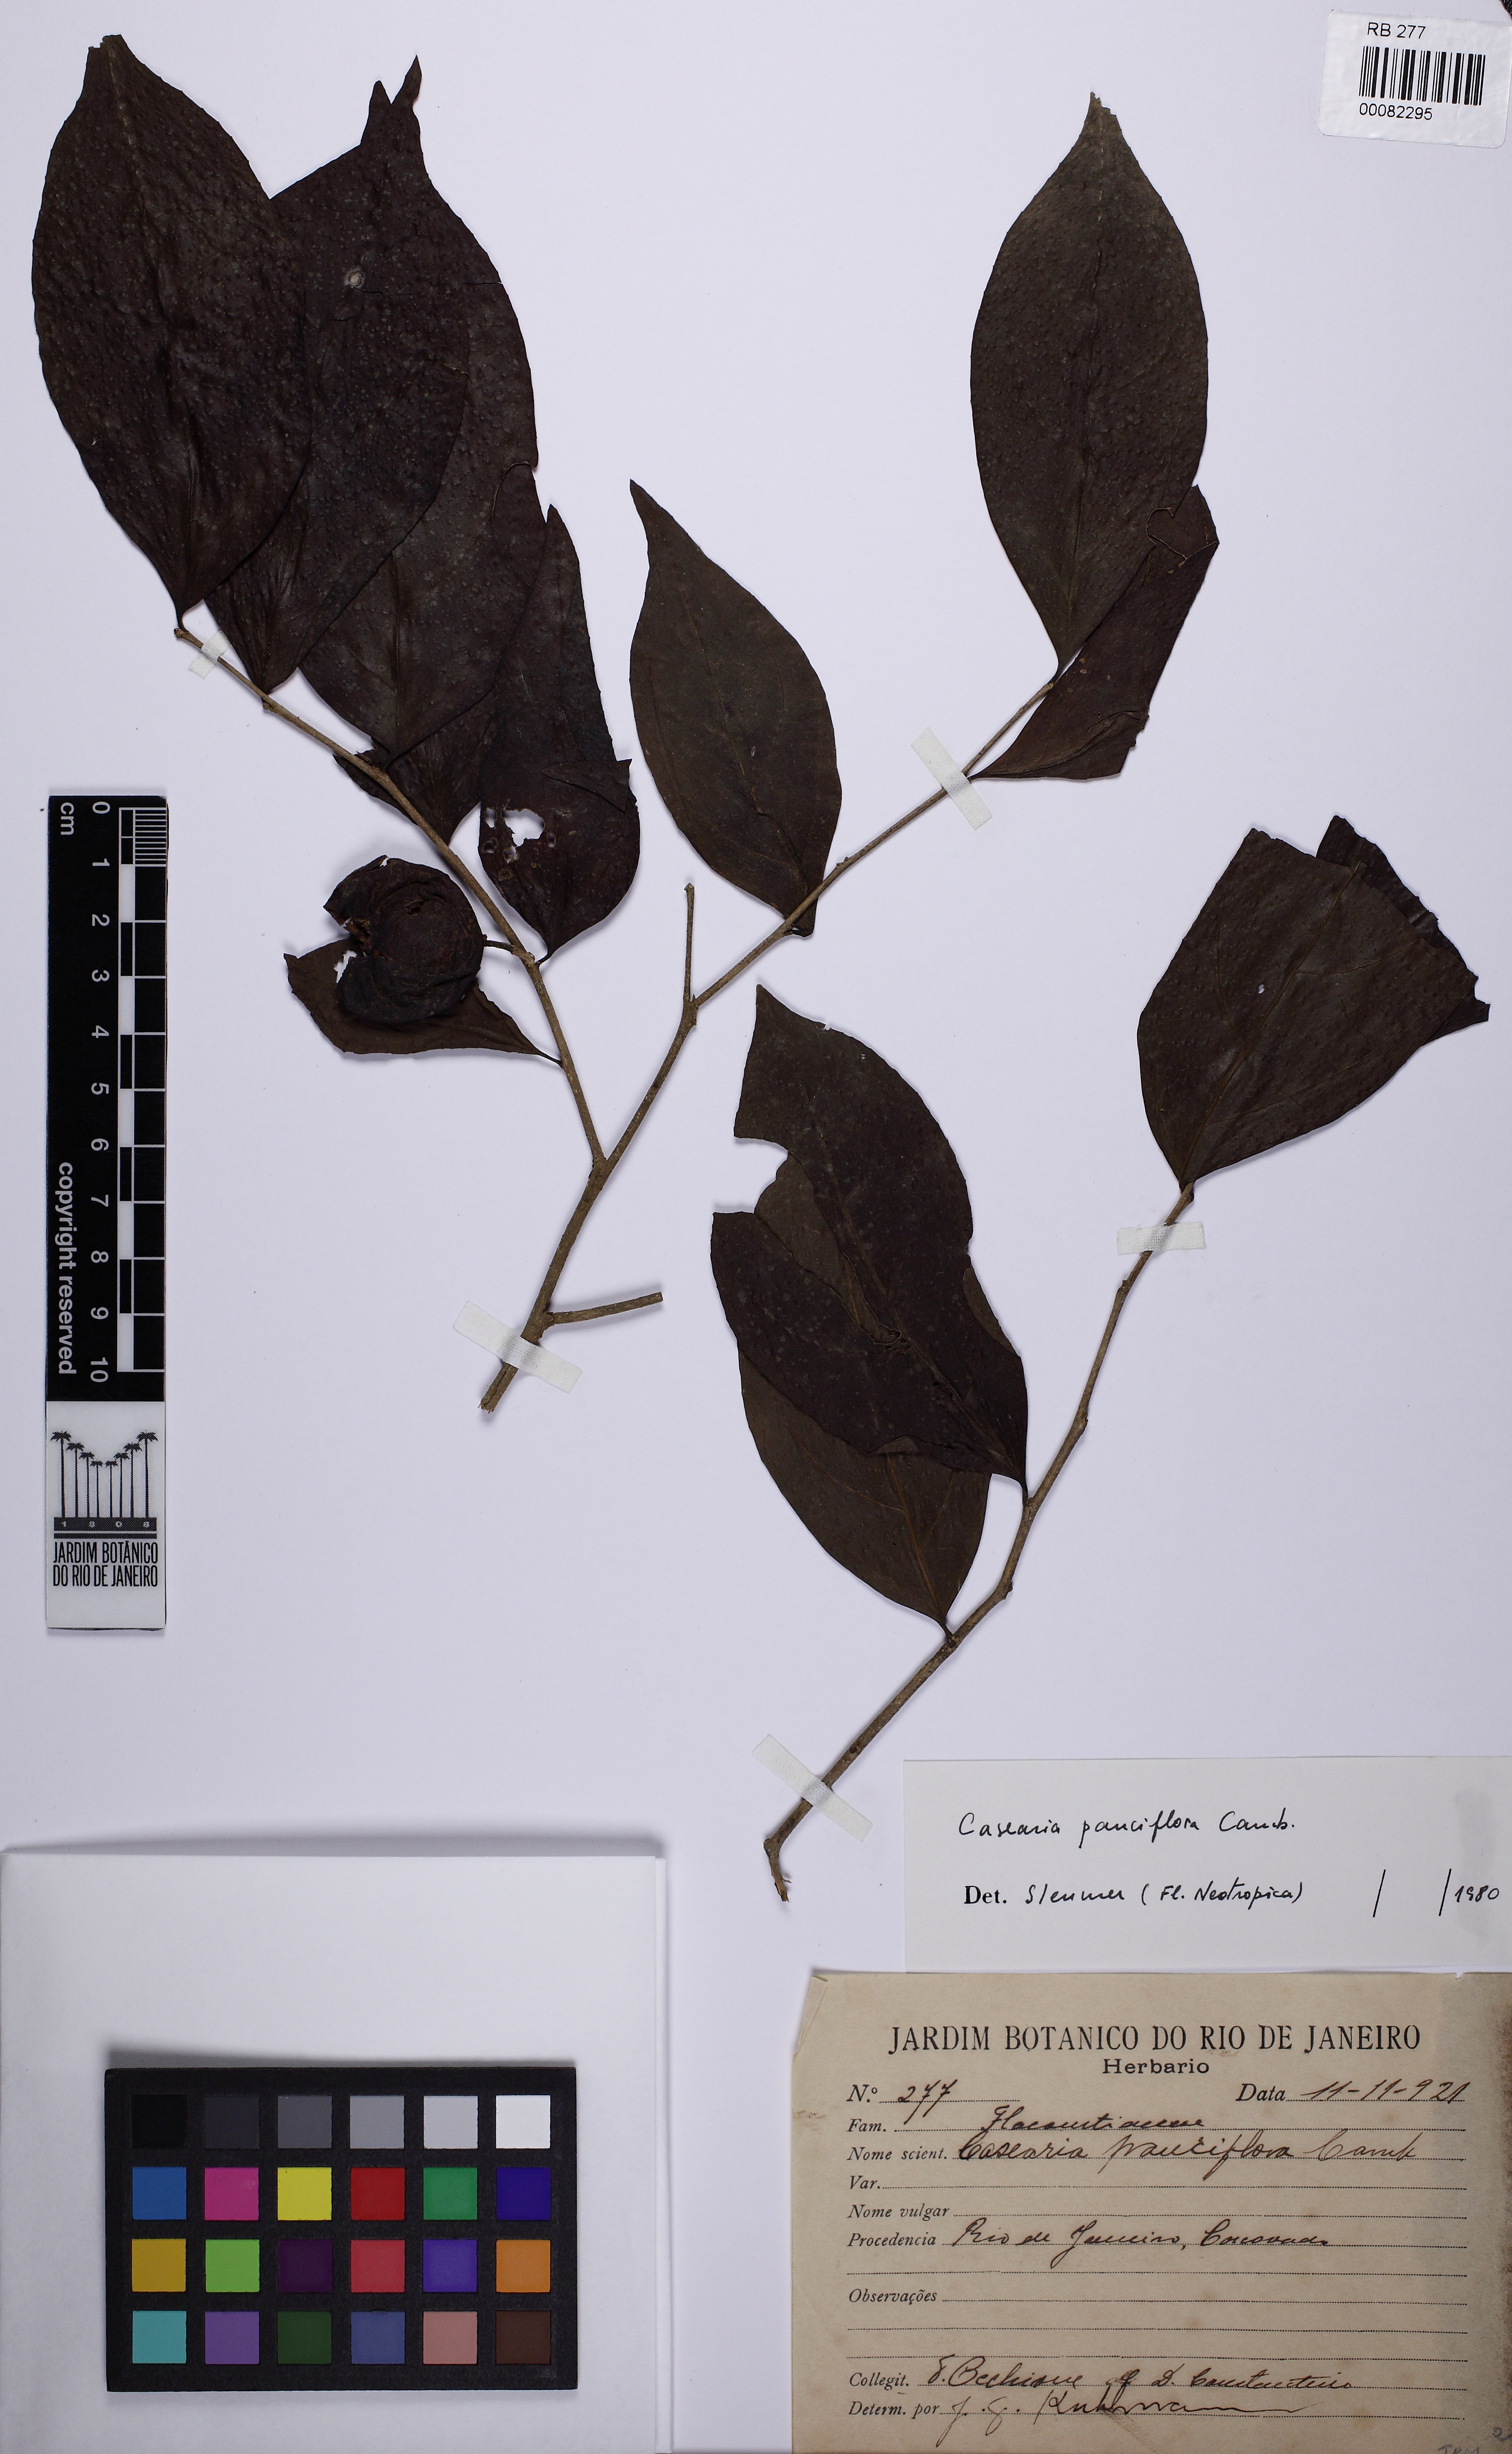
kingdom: Plantae
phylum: Tracheophyta
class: Magnoliopsida
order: Malpighiales
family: Salicaceae
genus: Casearia
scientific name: Casearia pauciflora
